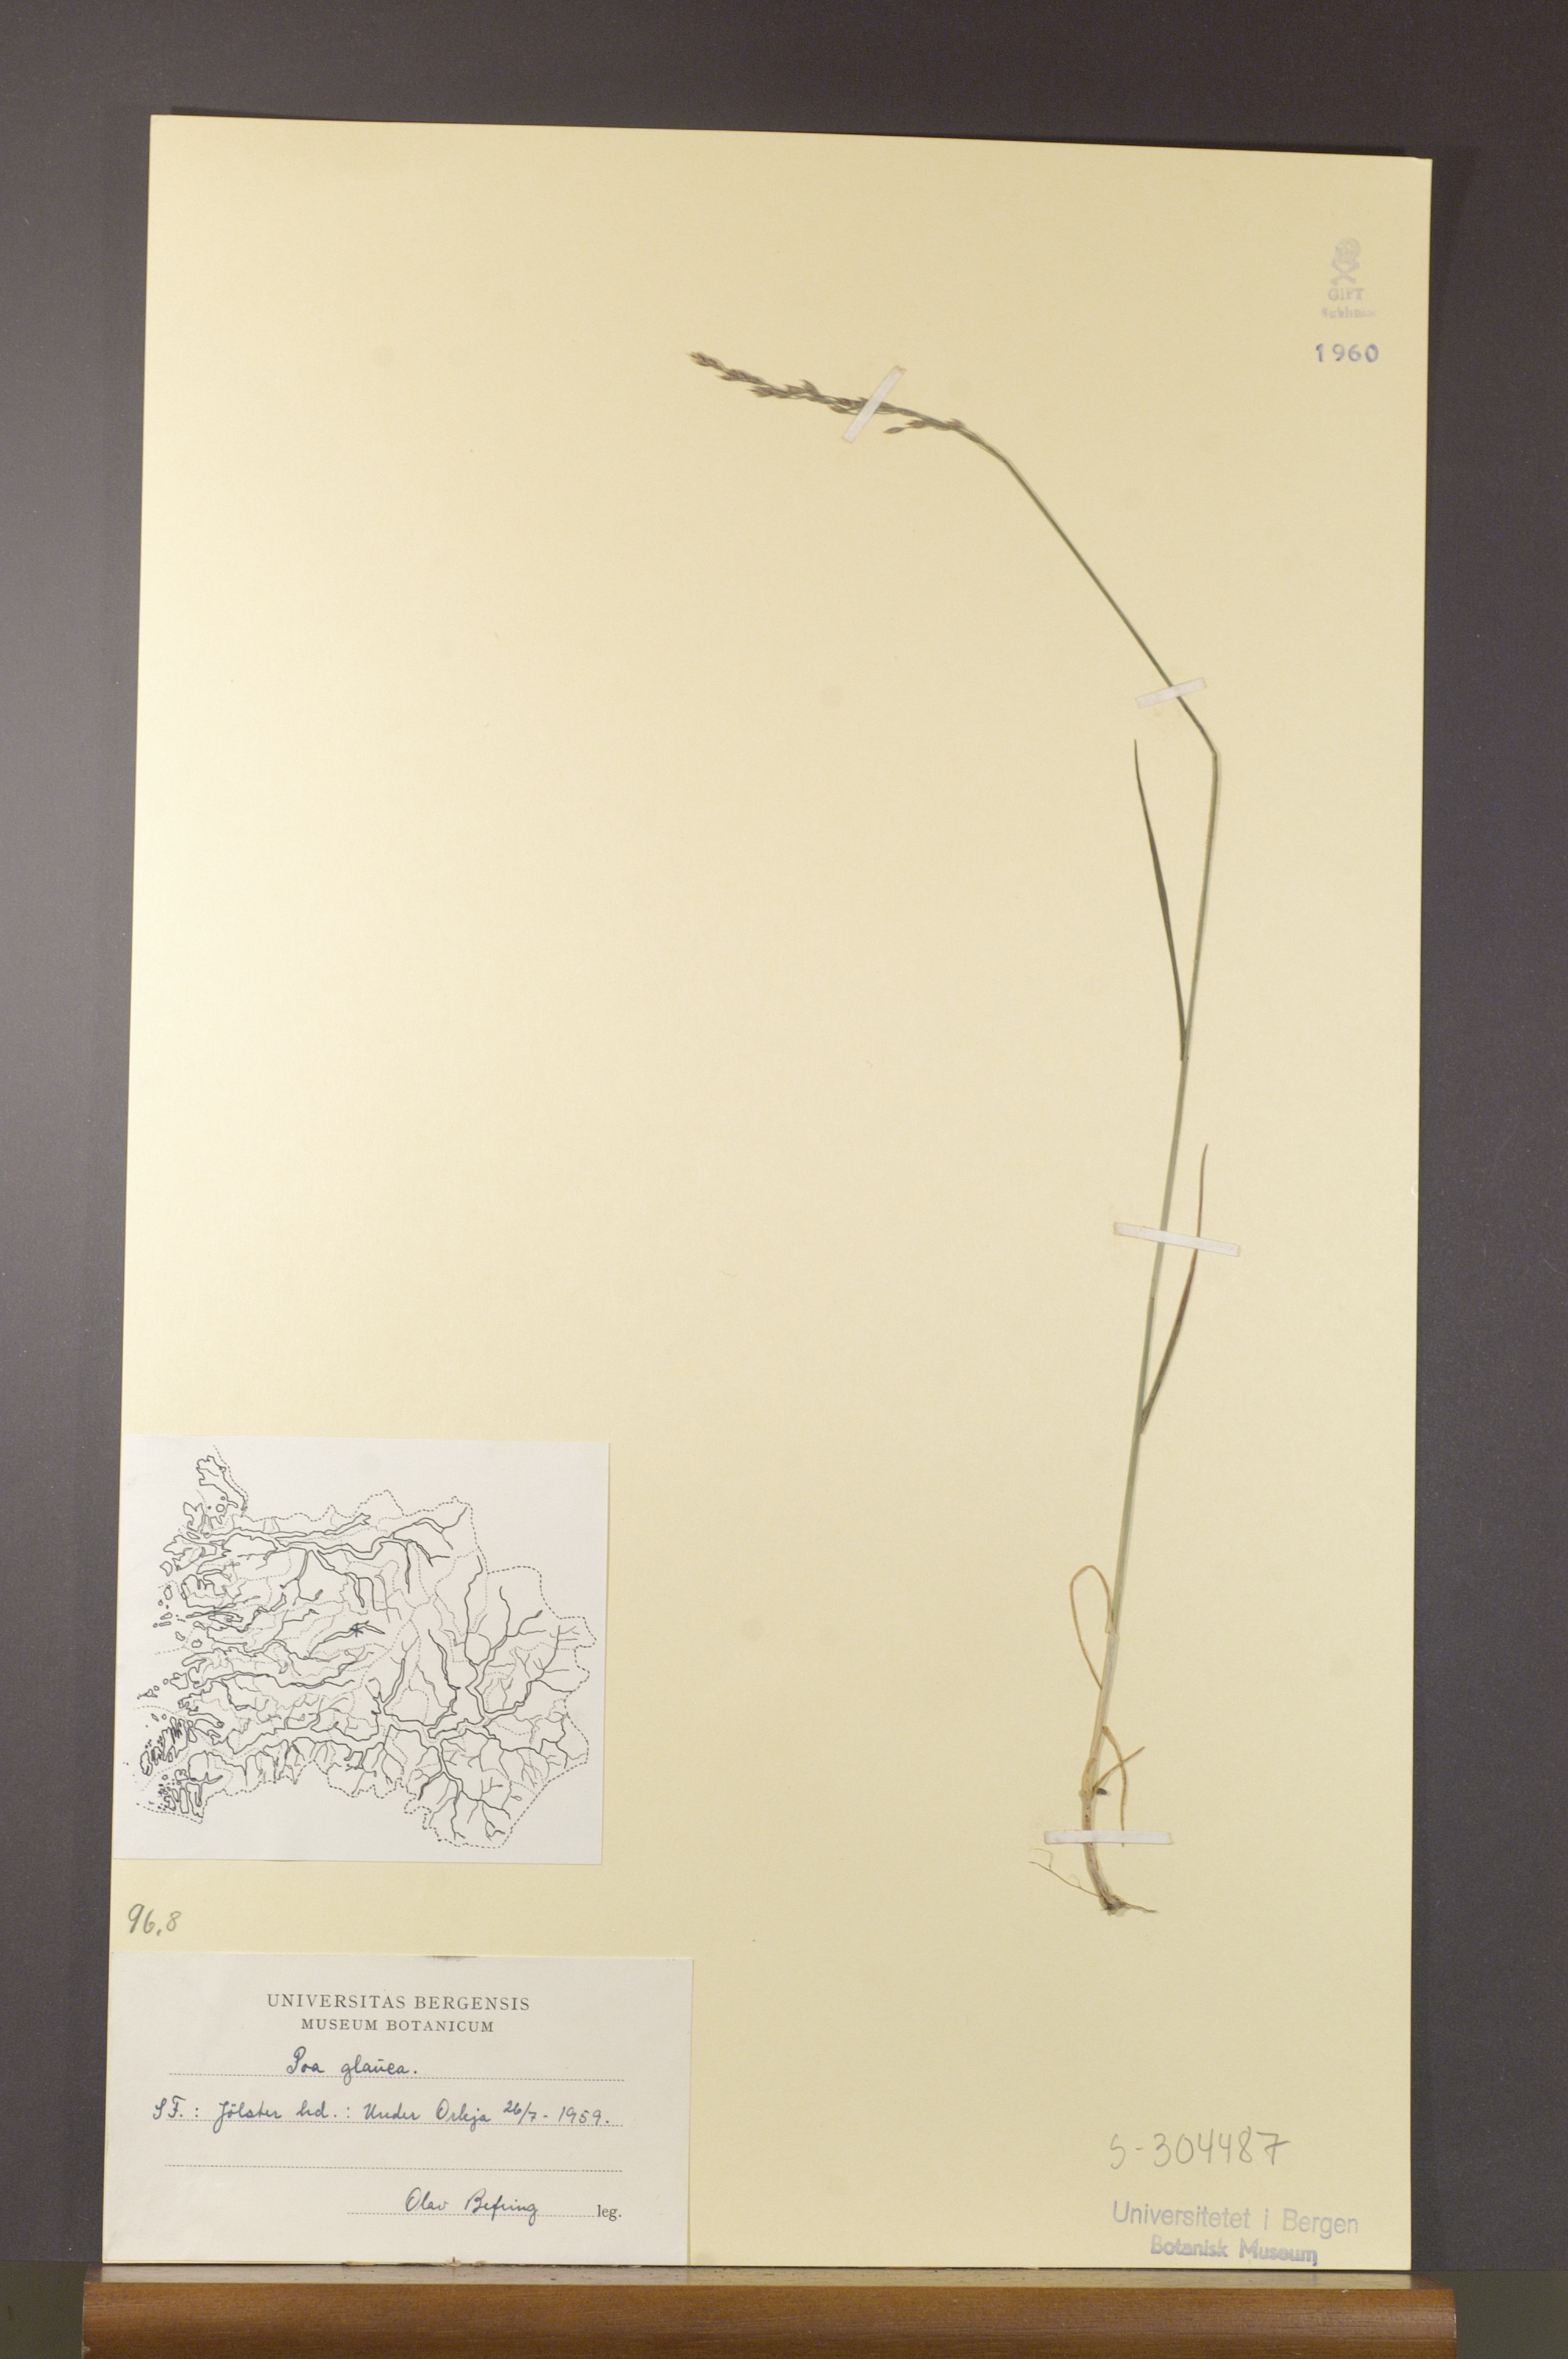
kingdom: Plantae
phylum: Tracheophyta
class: Liliopsida
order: Poales
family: Poaceae
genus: Poa
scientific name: Poa glauca
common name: Glaucous bluegrass
